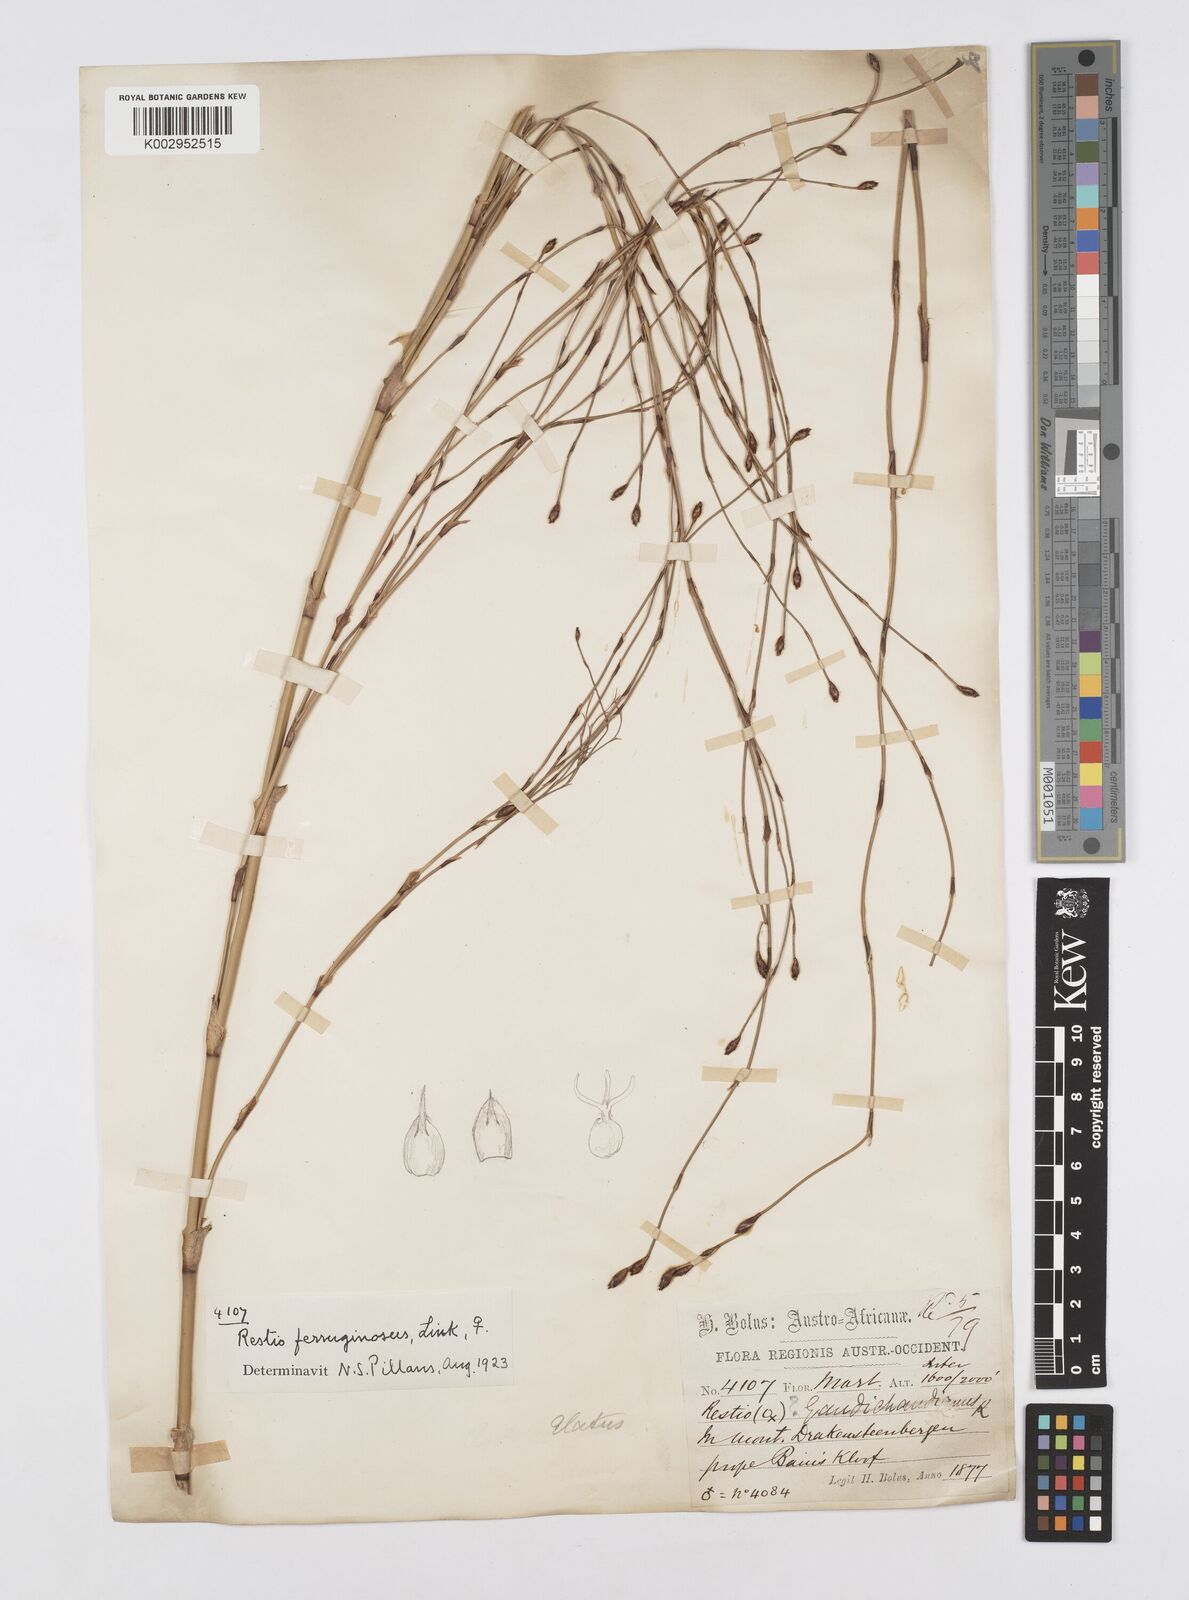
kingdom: Plantae
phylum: Tracheophyta
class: Liliopsida
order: Poales
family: Restionaceae
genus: Restio
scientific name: Restio gaudichaudianus
